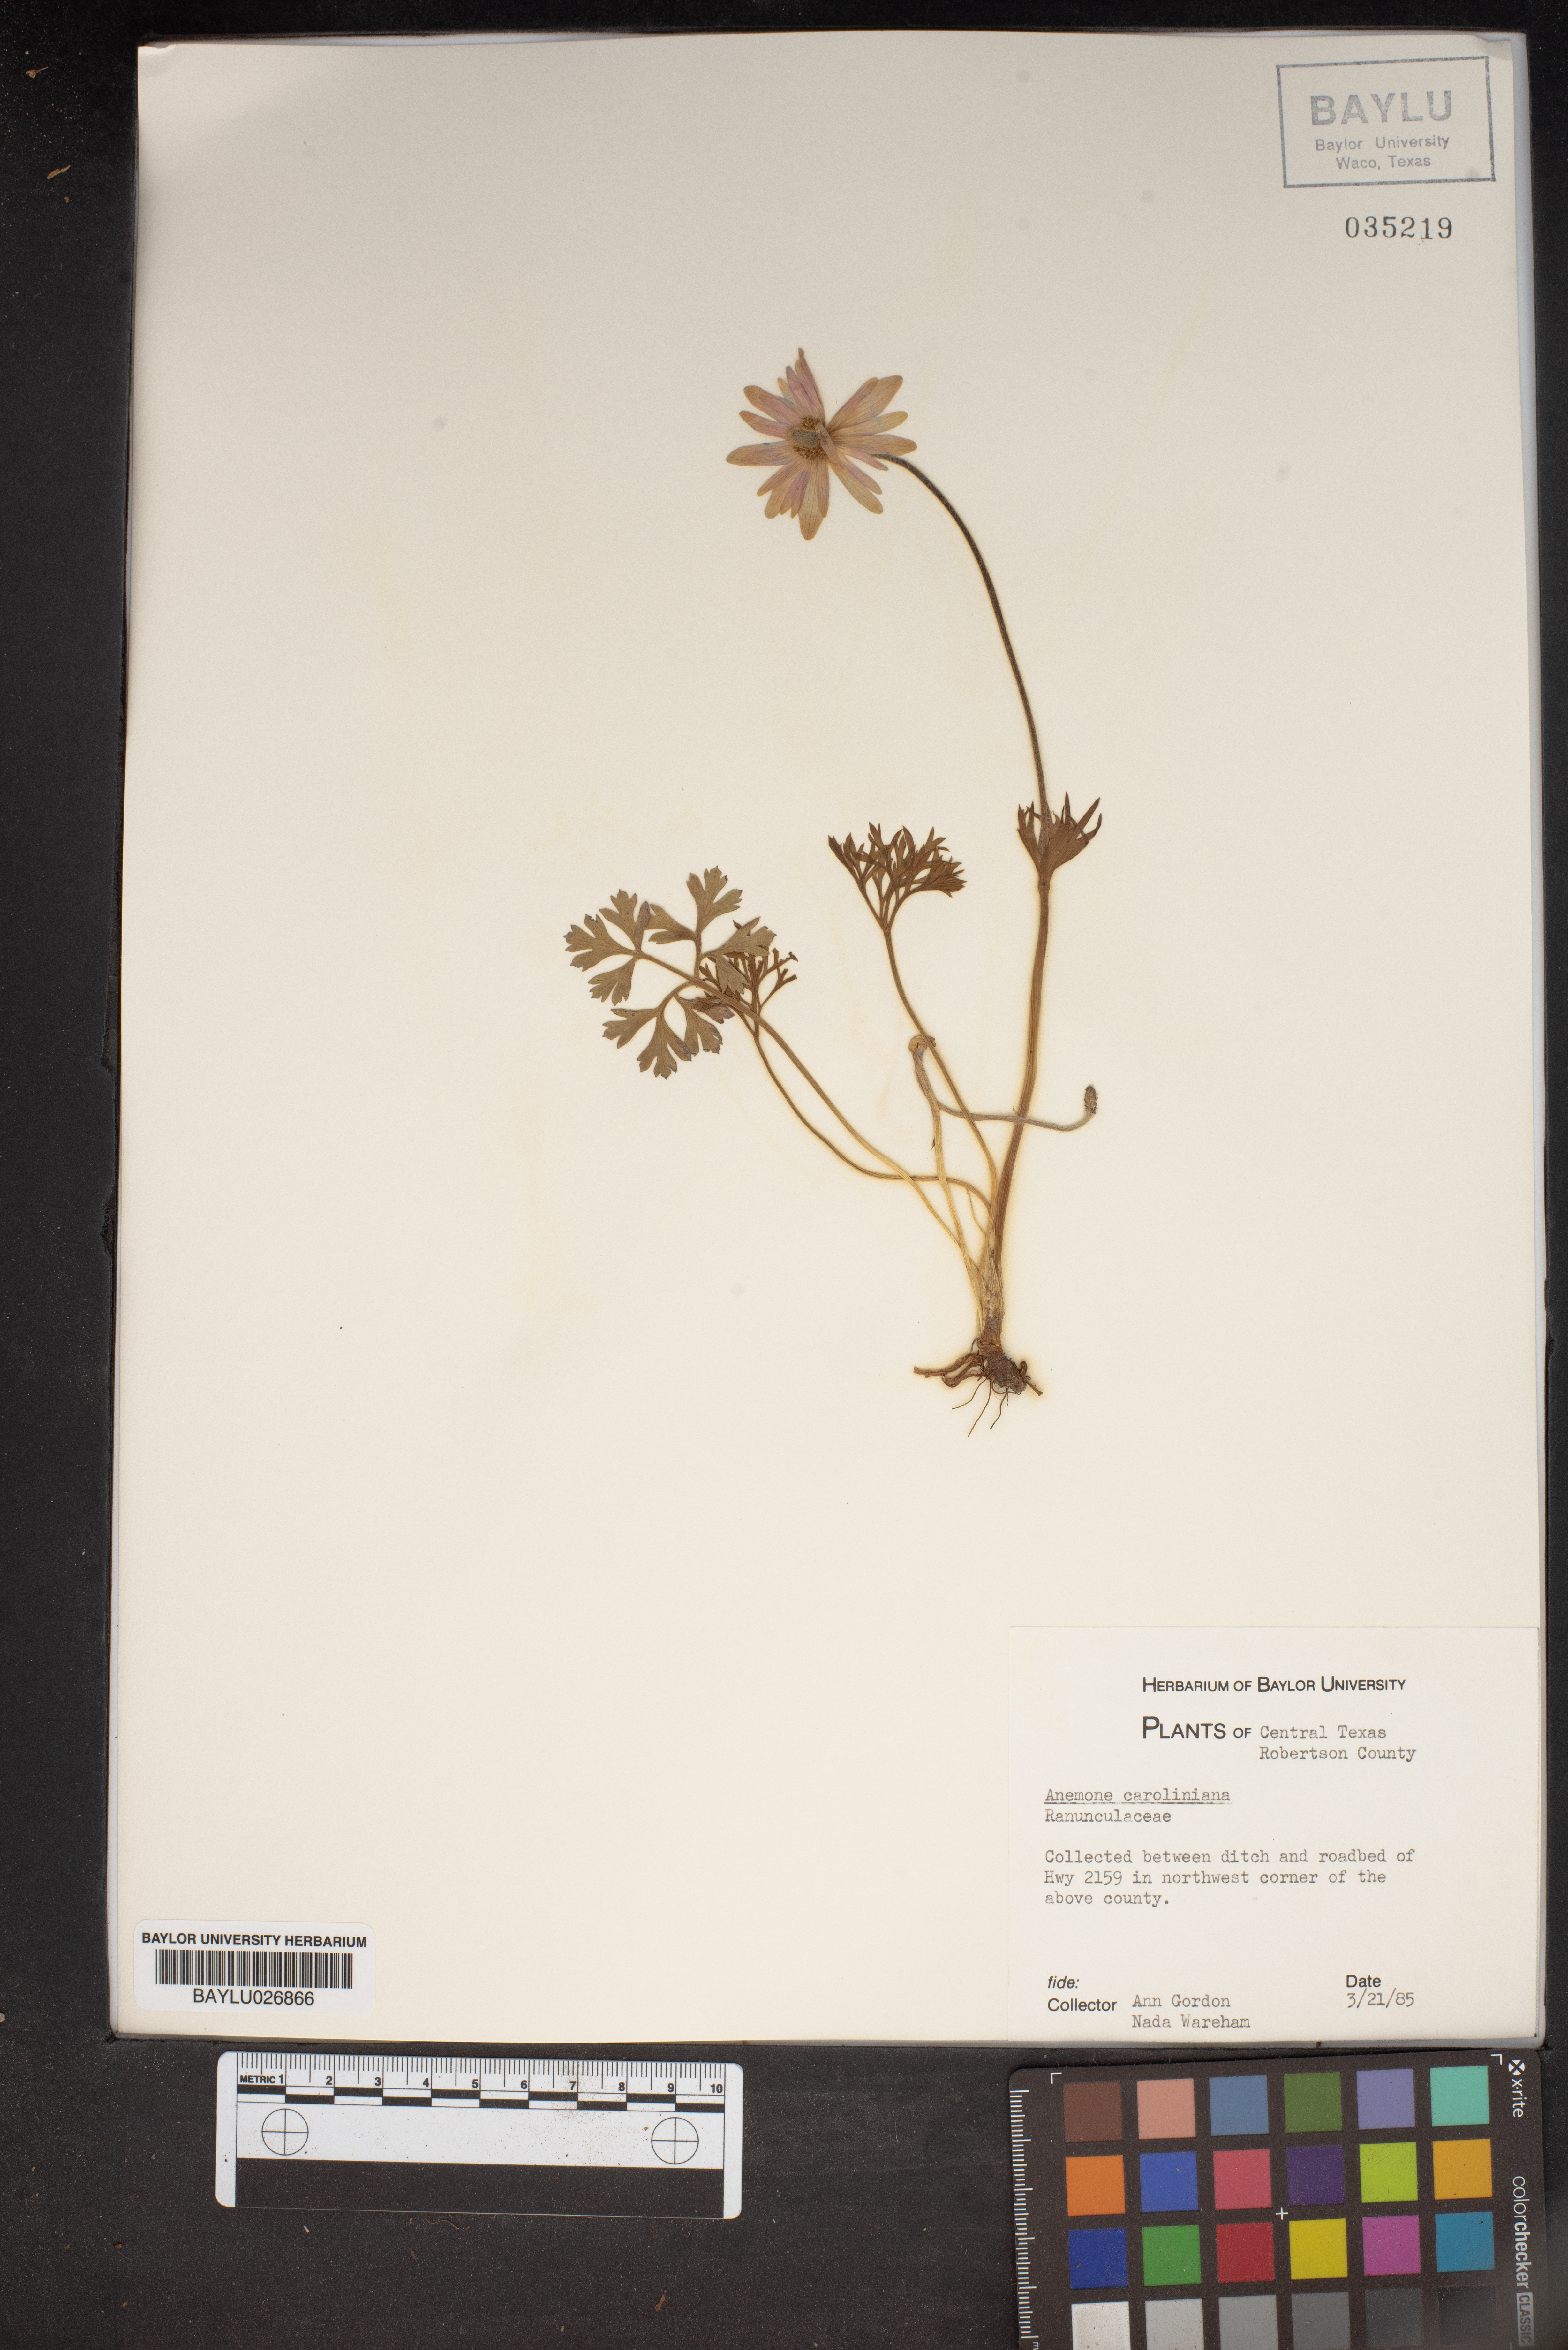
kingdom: Plantae
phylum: Tracheophyta
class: Magnoliopsida
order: Ranunculales
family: Ranunculaceae
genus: Anemone
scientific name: Anemone caroliniana
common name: Carolina anemone
